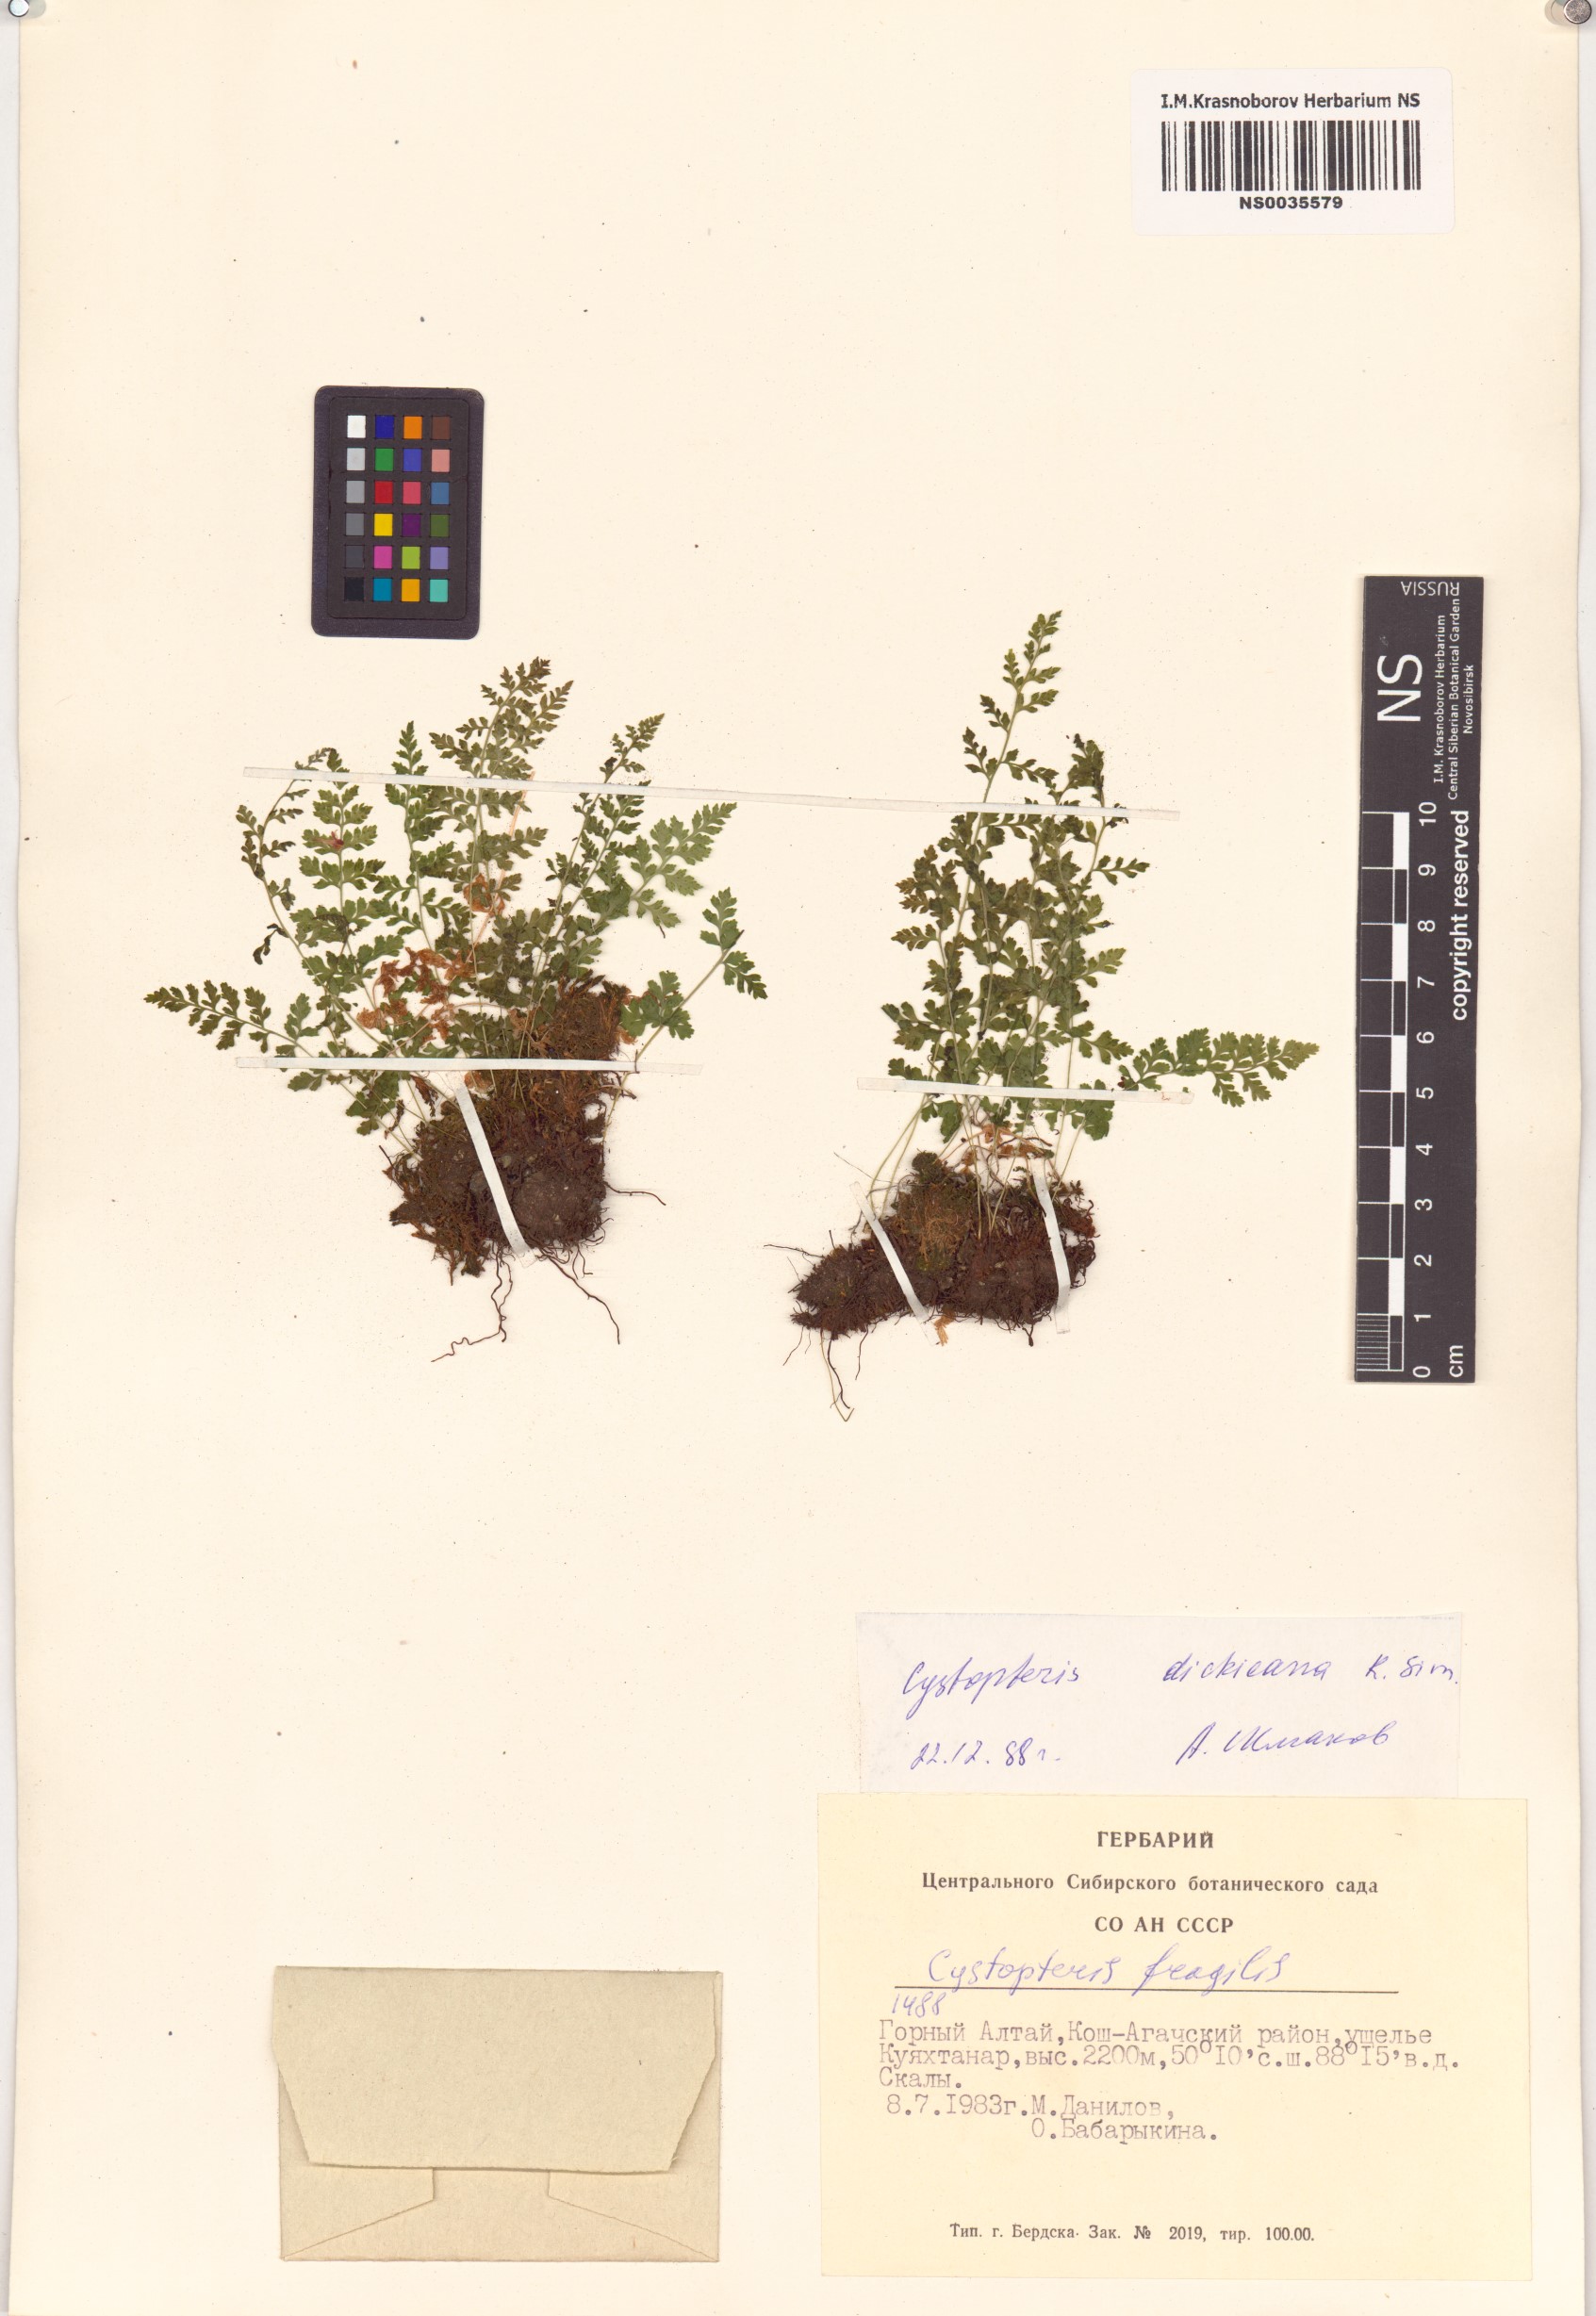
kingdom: Plantae
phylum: Tracheophyta
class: Polypodiopsida
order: Polypodiales
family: Cystopteridaceae
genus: Cystopteris
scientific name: Cystopteris dickieana
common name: Dickie's bladder-fern
